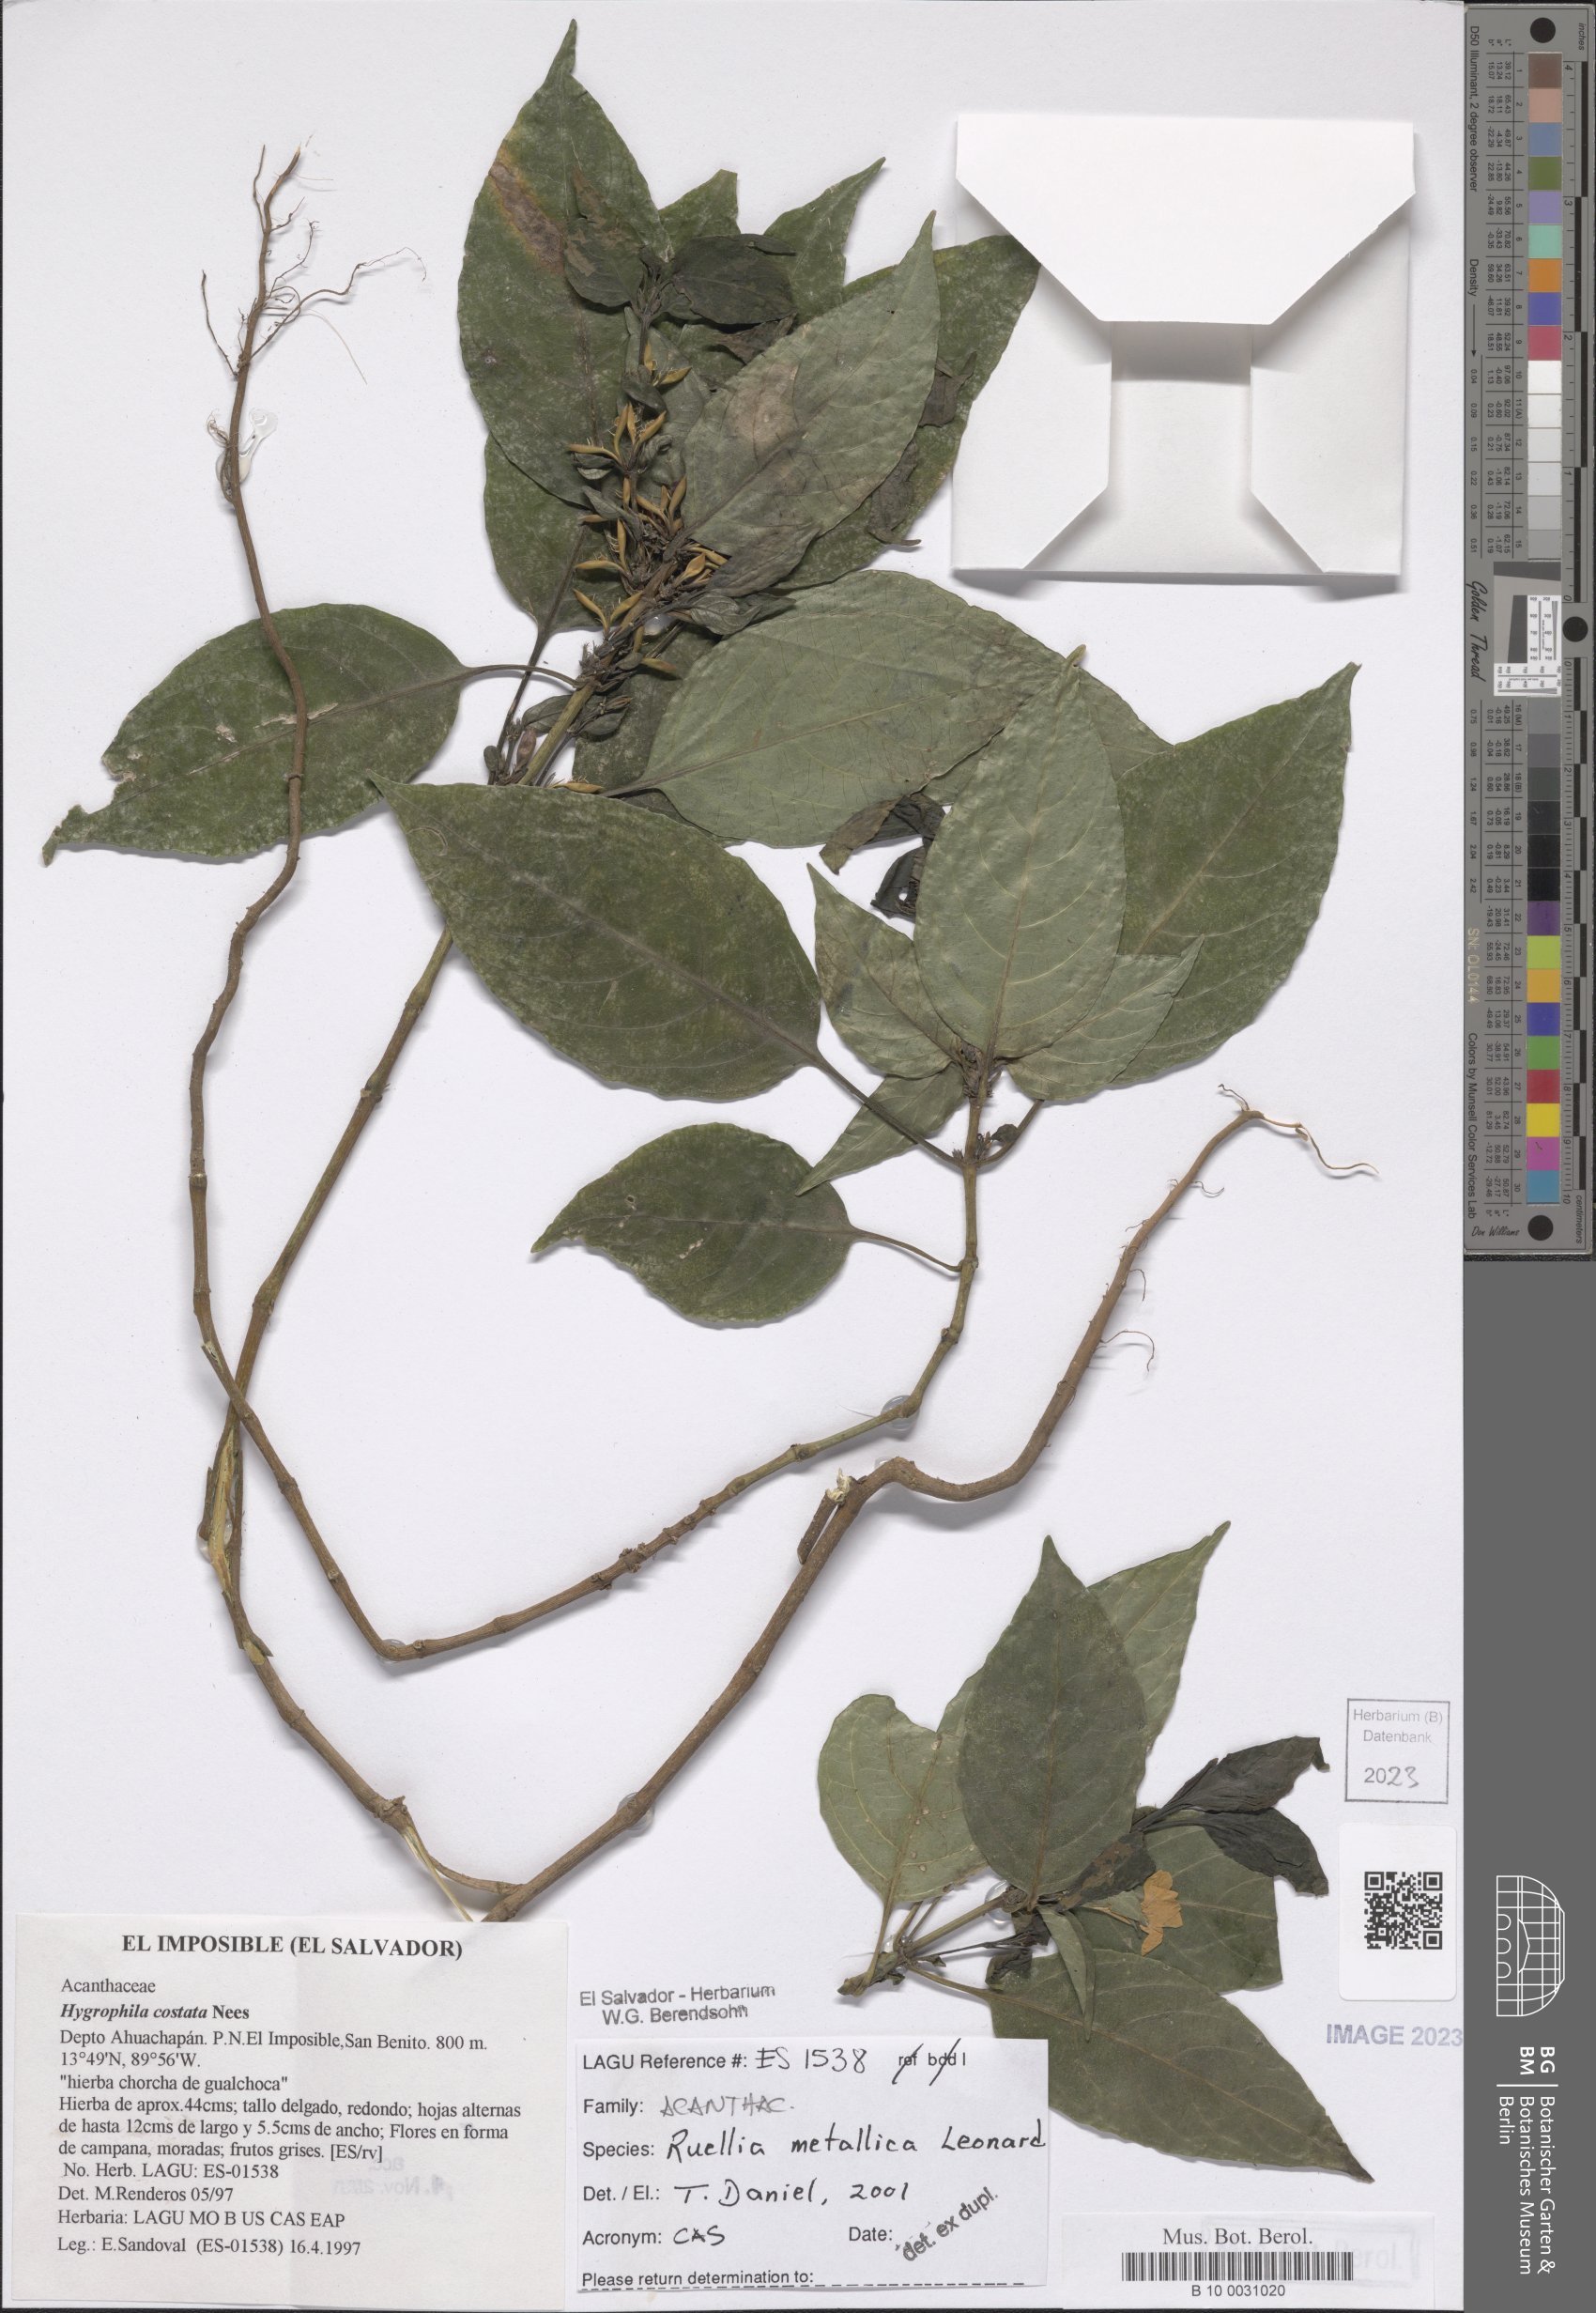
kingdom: Plantae
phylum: Tracheophyta
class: Magnoliopsida
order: Lamiales
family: Acanthaceae
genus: Ruellia
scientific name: Ruellia metallica
